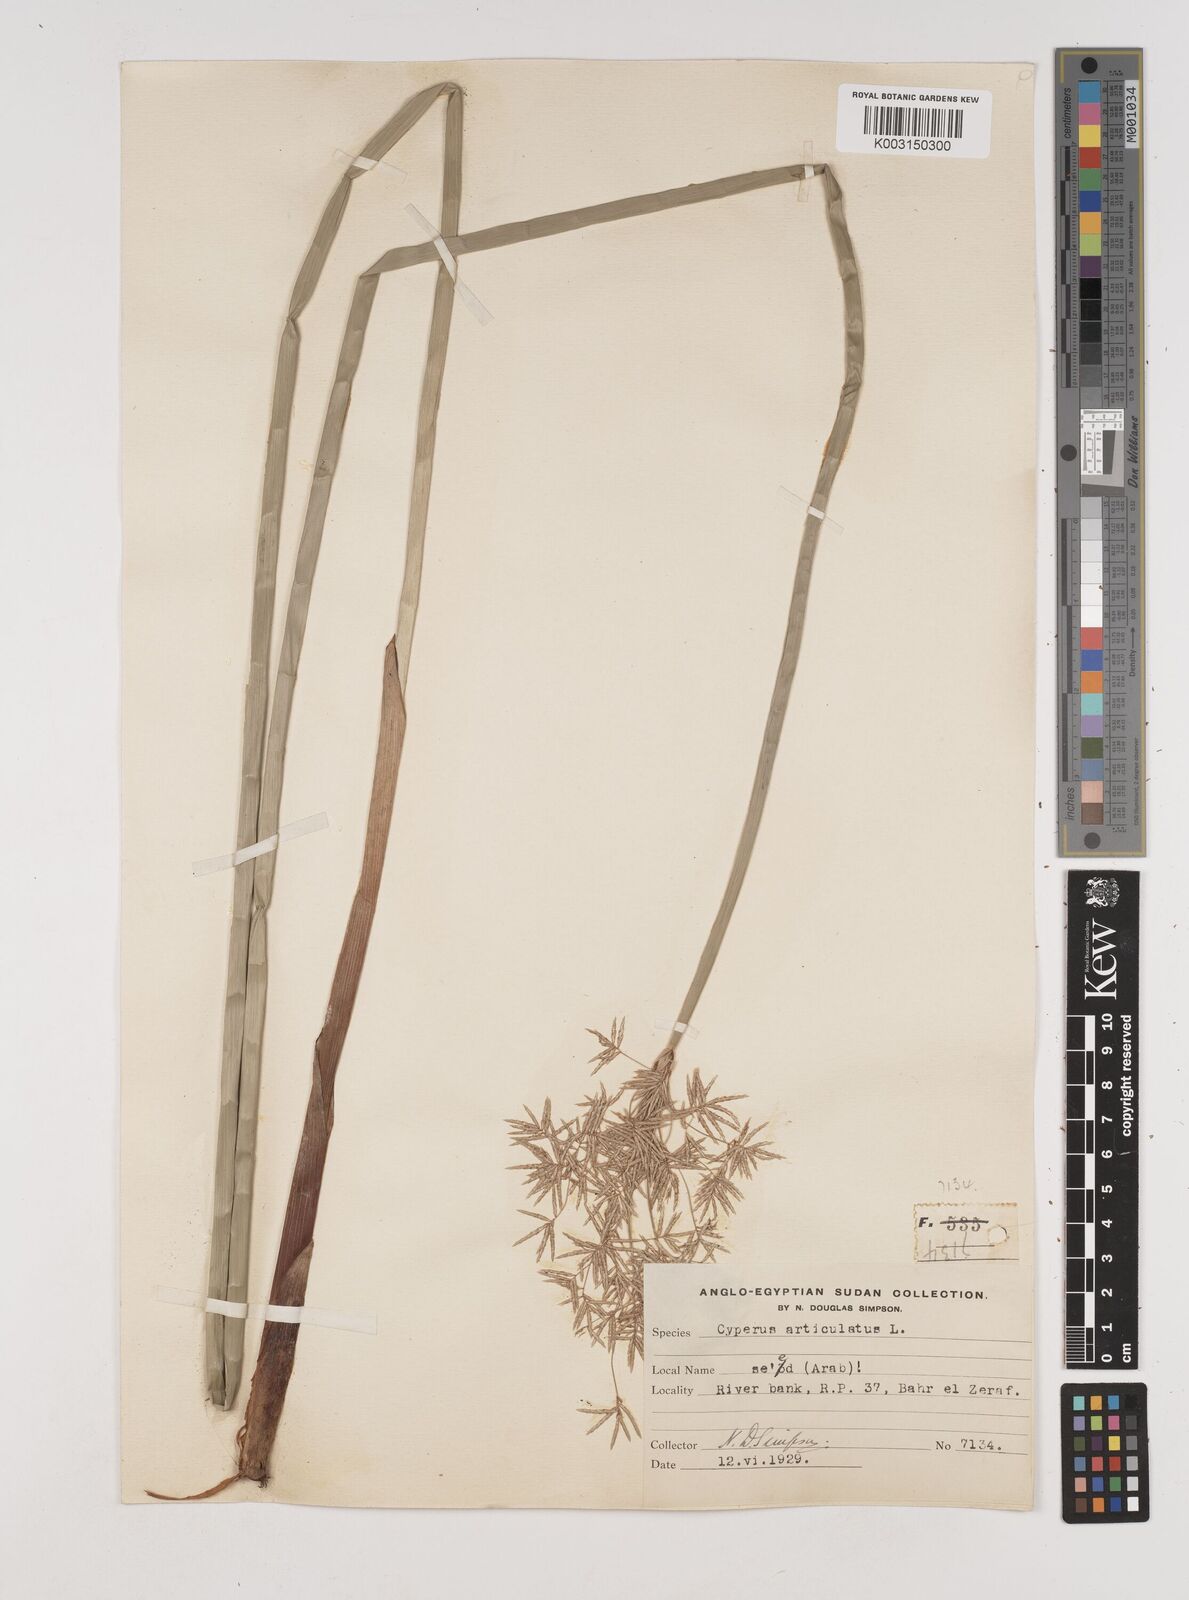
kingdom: Plantae
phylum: Tracheophyta
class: Liliopsida
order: Poales
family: Cyperaceae
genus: Cyperus
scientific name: Cyperus articulatus
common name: Jointed flatsedge
